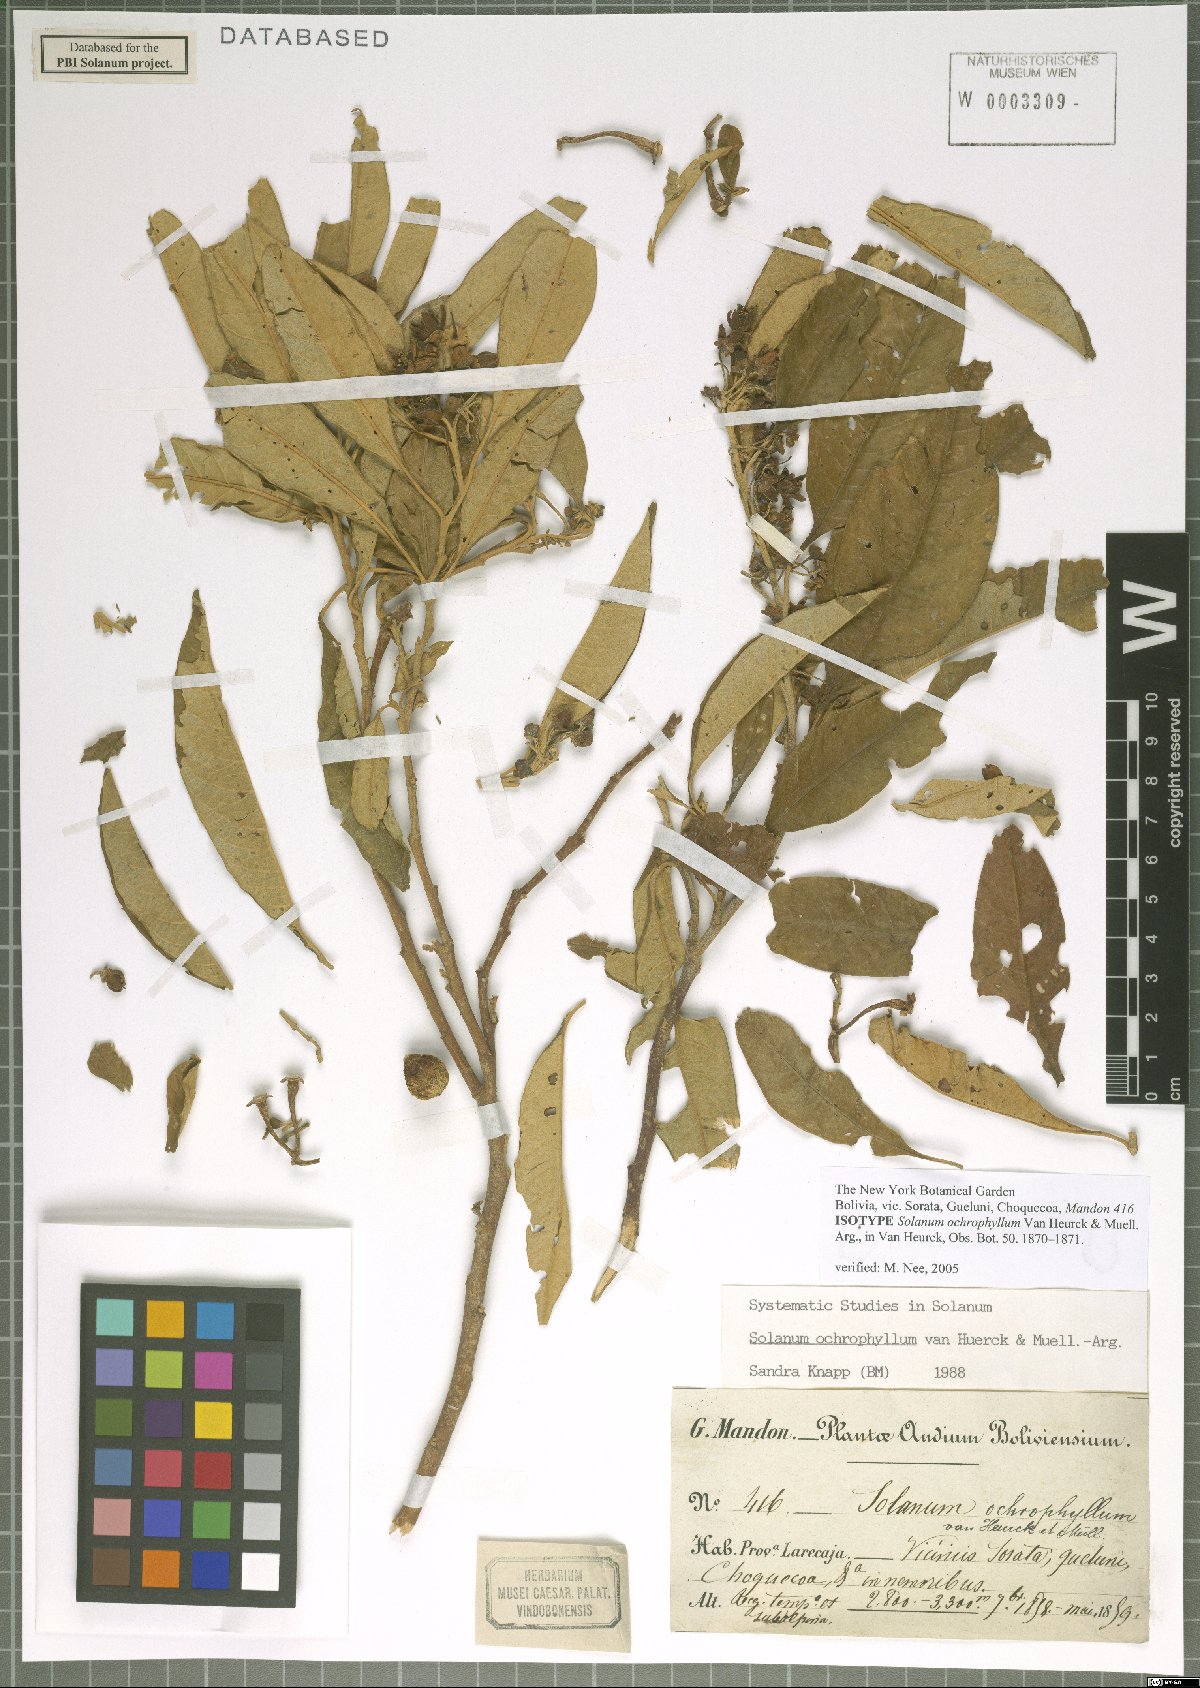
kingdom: Plantae
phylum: Tracheophyta
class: Magnoliopsida
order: Solanales
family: Solanaceae
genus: Solanum
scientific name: Solanum ochrophyllum
